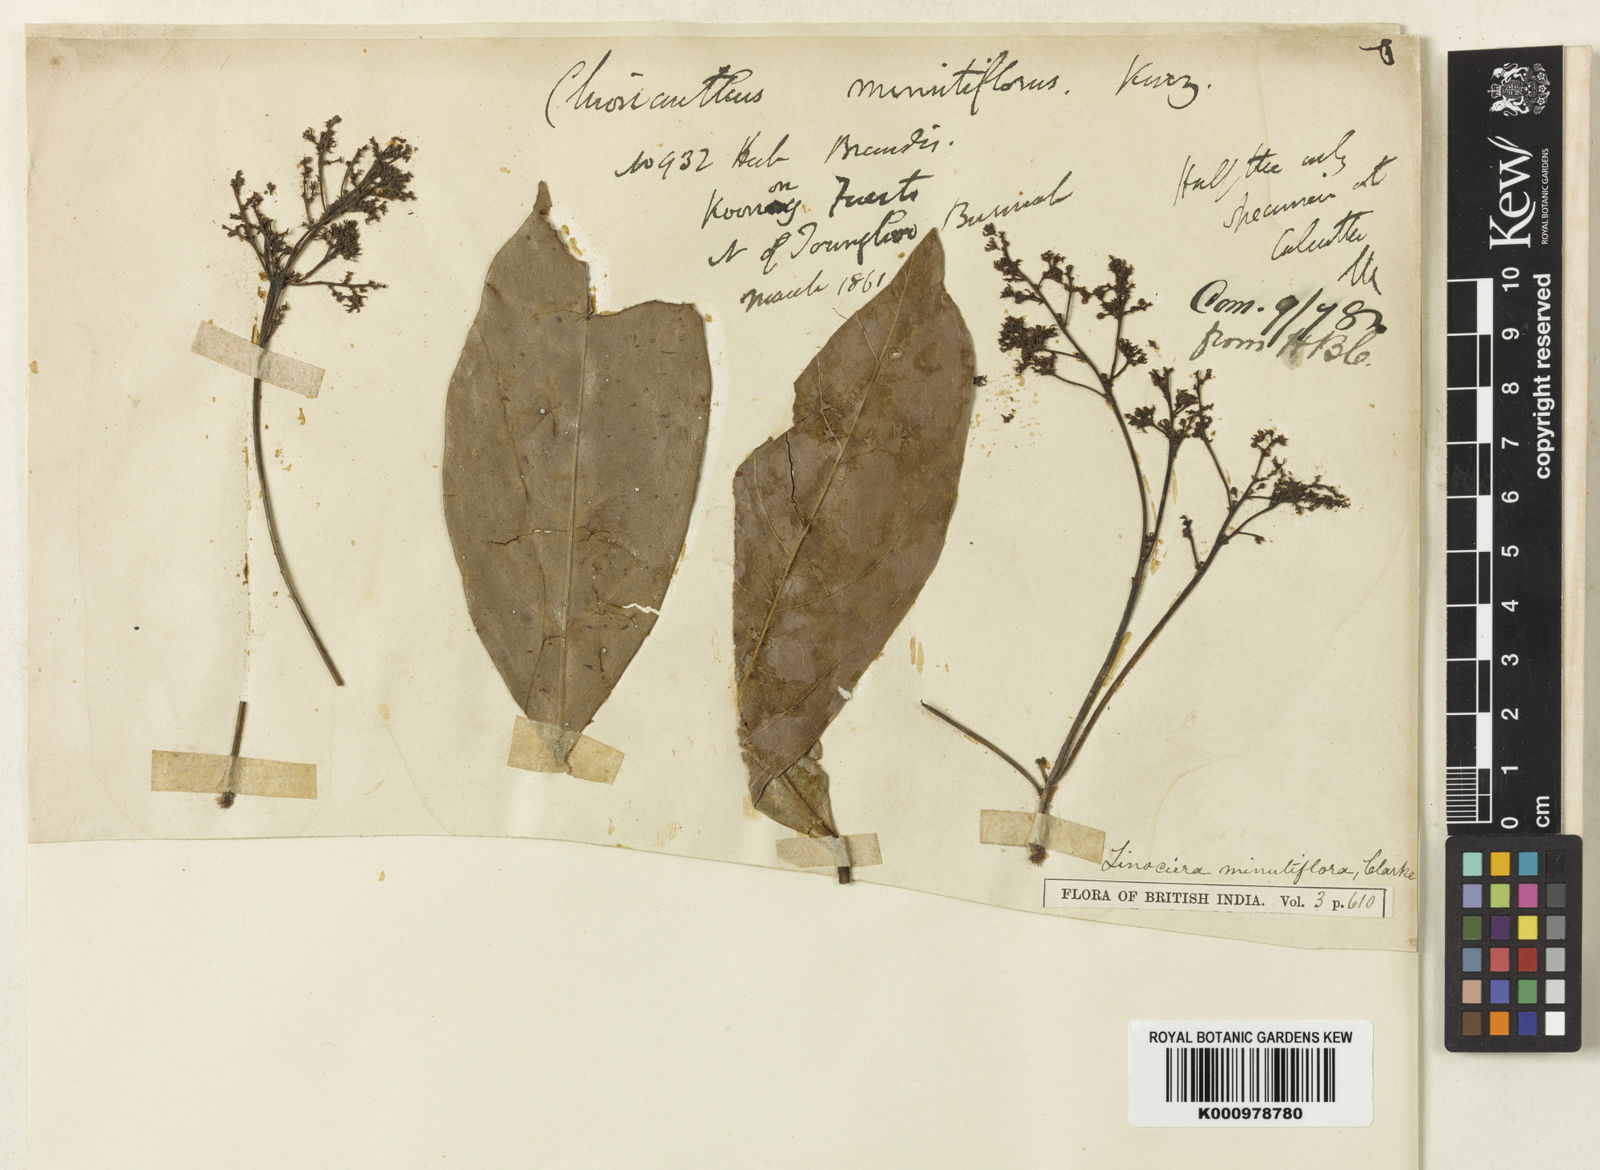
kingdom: Plantae
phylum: Tracheophyta
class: Magnoliopsida
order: Lamiales
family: Oleaceae
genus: Chionanthus
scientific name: Chionanthus minutiflorus
